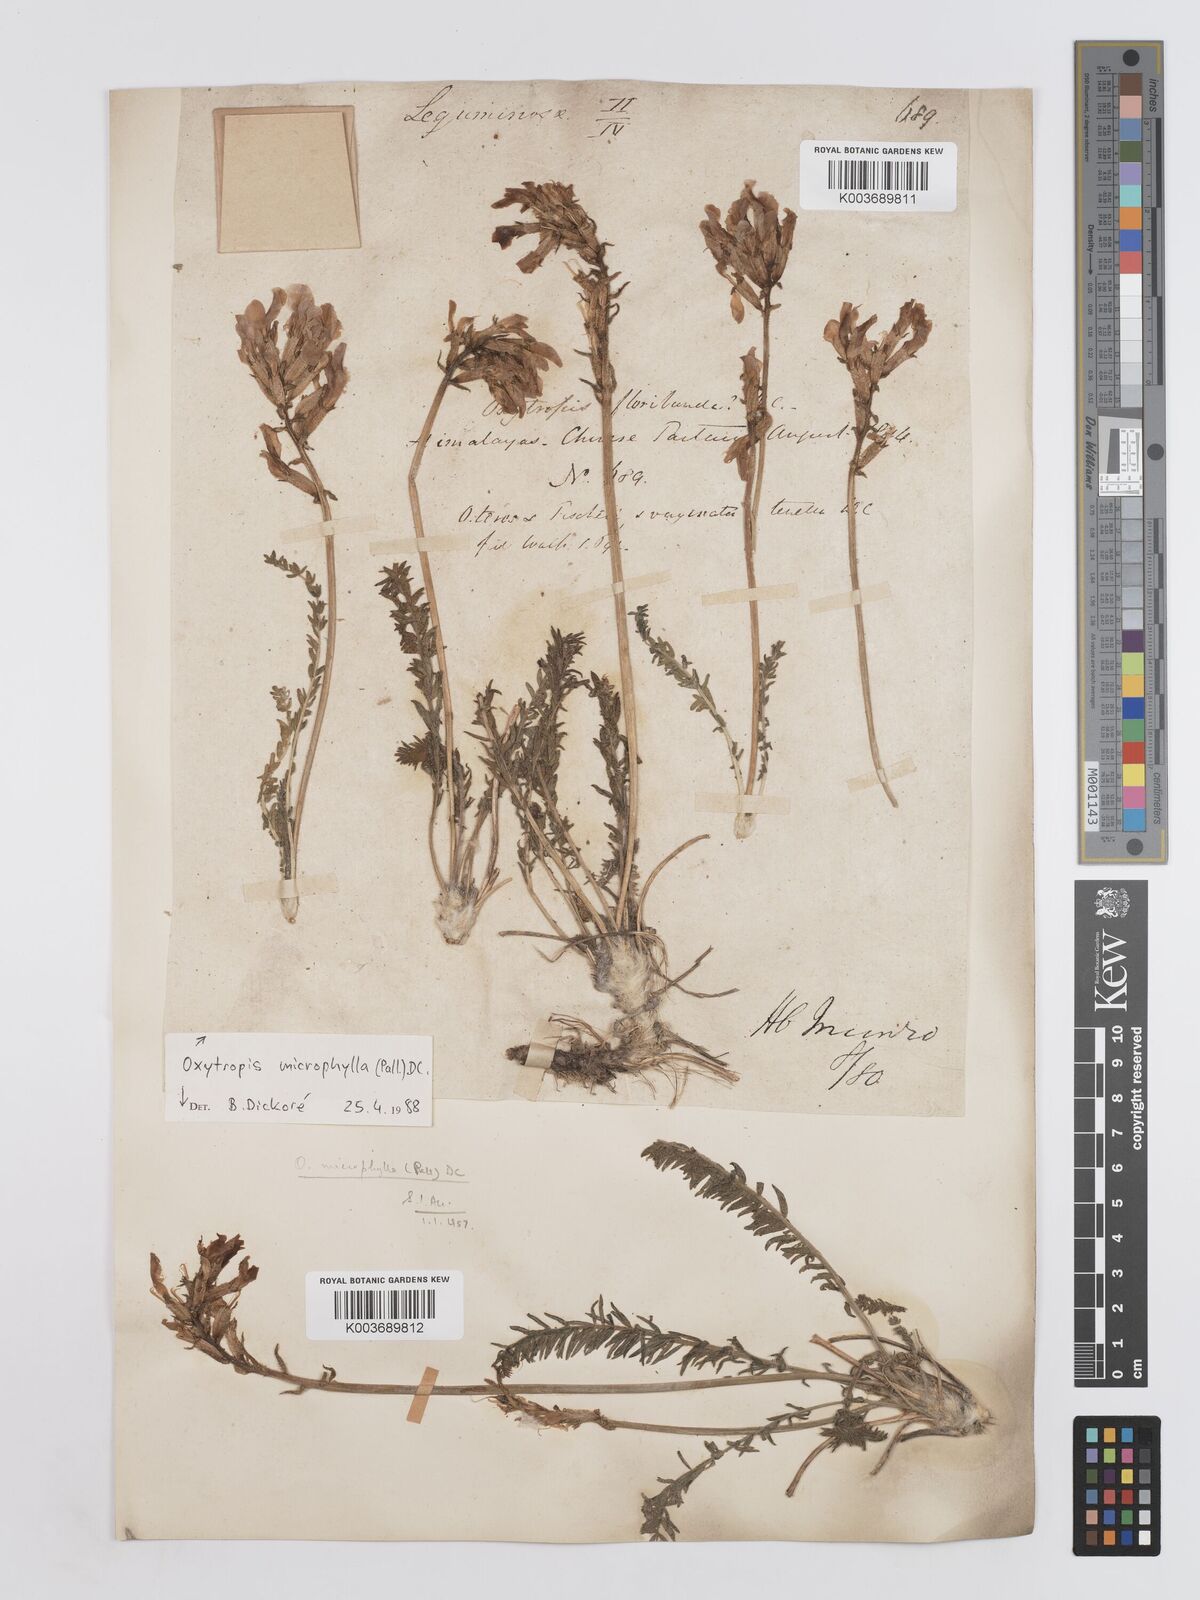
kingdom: Plantae
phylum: Tracheophyta
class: Magnoliopsida
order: Fabales
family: Fabaceae
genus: Oxytropis
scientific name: Oxytropis microphylla
